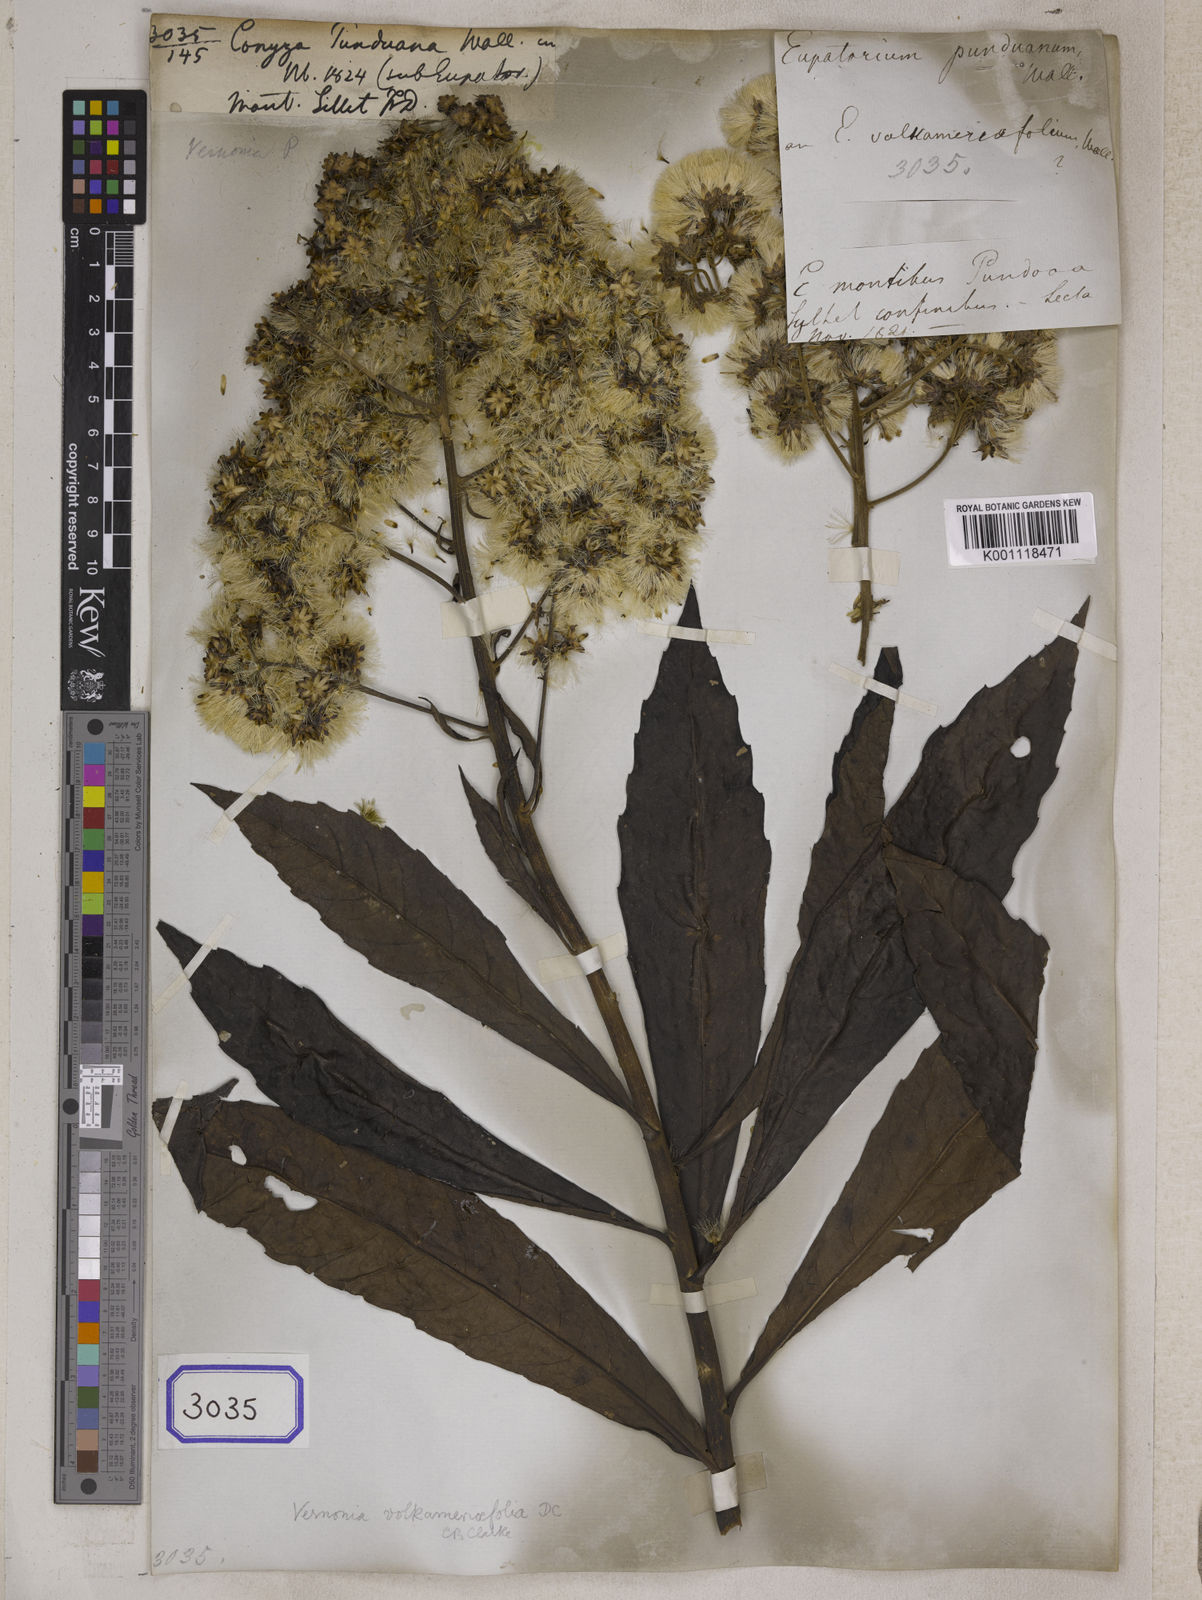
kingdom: Plantae
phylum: Tracheophyta
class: Magnoliopsida
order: Asterales
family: Asteraceae
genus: Monosis
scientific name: Monosis volkameriifolia
